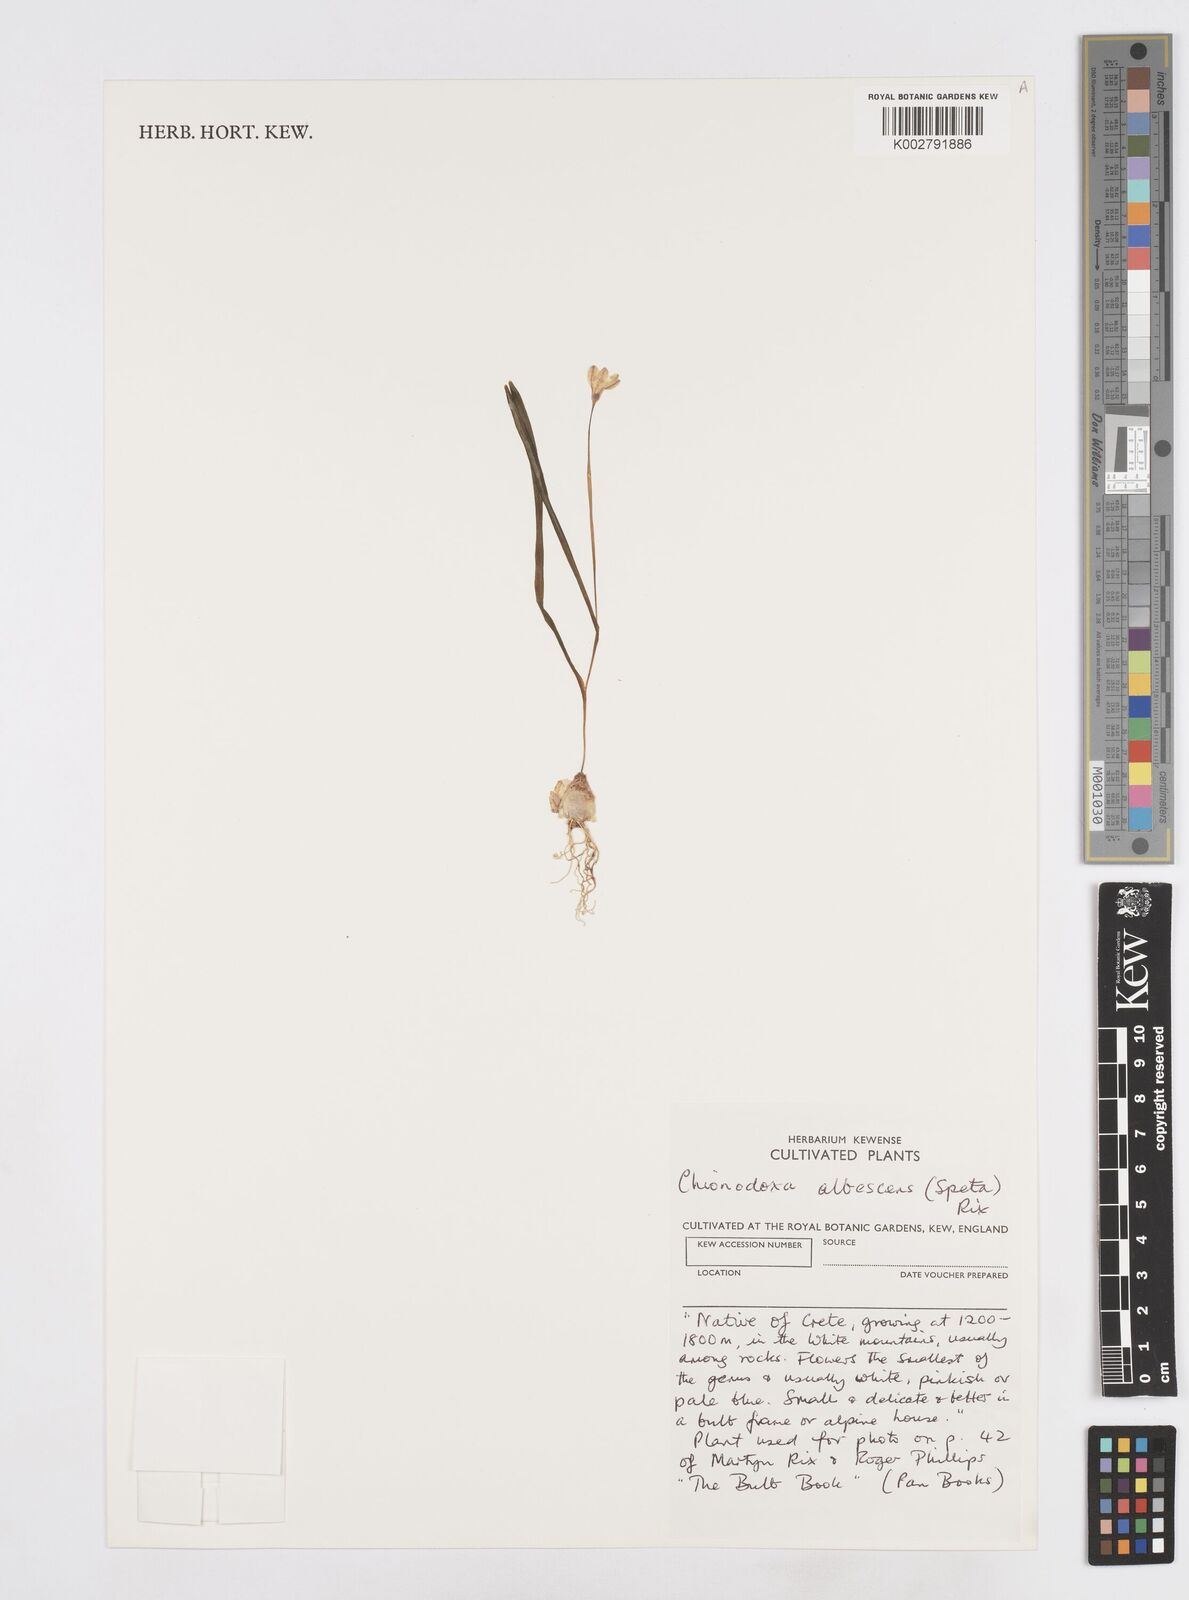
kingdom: Plantae
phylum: Tracheophyta
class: Liliopsida
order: Asparagales
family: Asparagaceae
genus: Scilla
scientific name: Scilla nana
